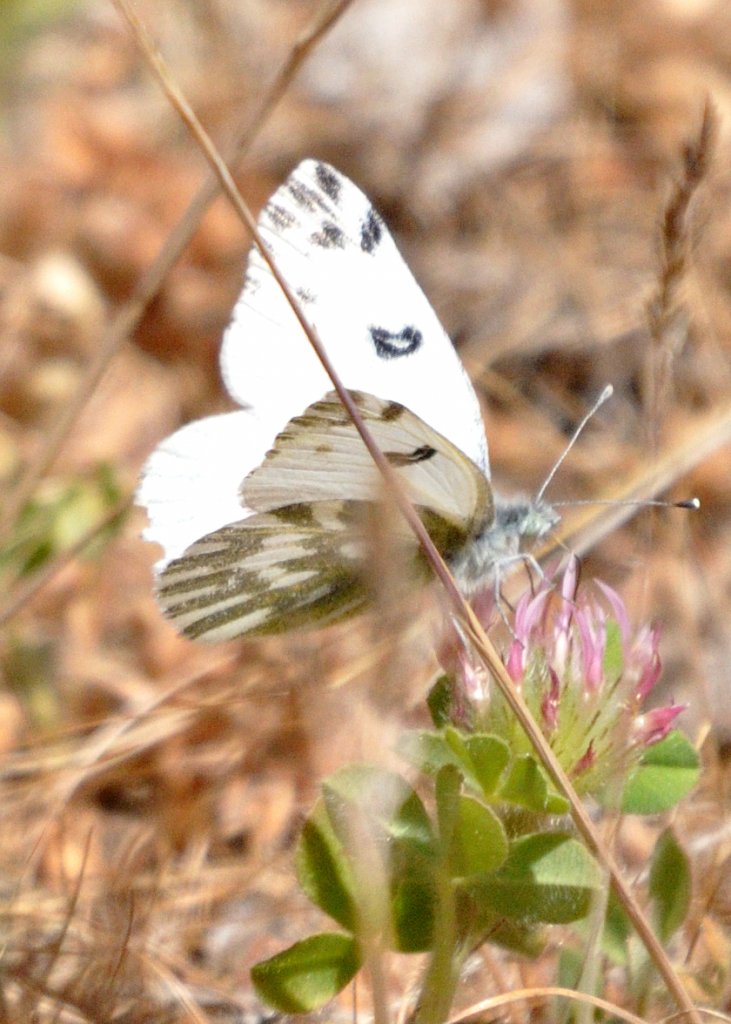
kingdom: Animalia
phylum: Arthropoda
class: Insecta
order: Lepidoptera
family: Pieridae
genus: Pontia
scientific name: Pontia beckerii
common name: Becker's White
